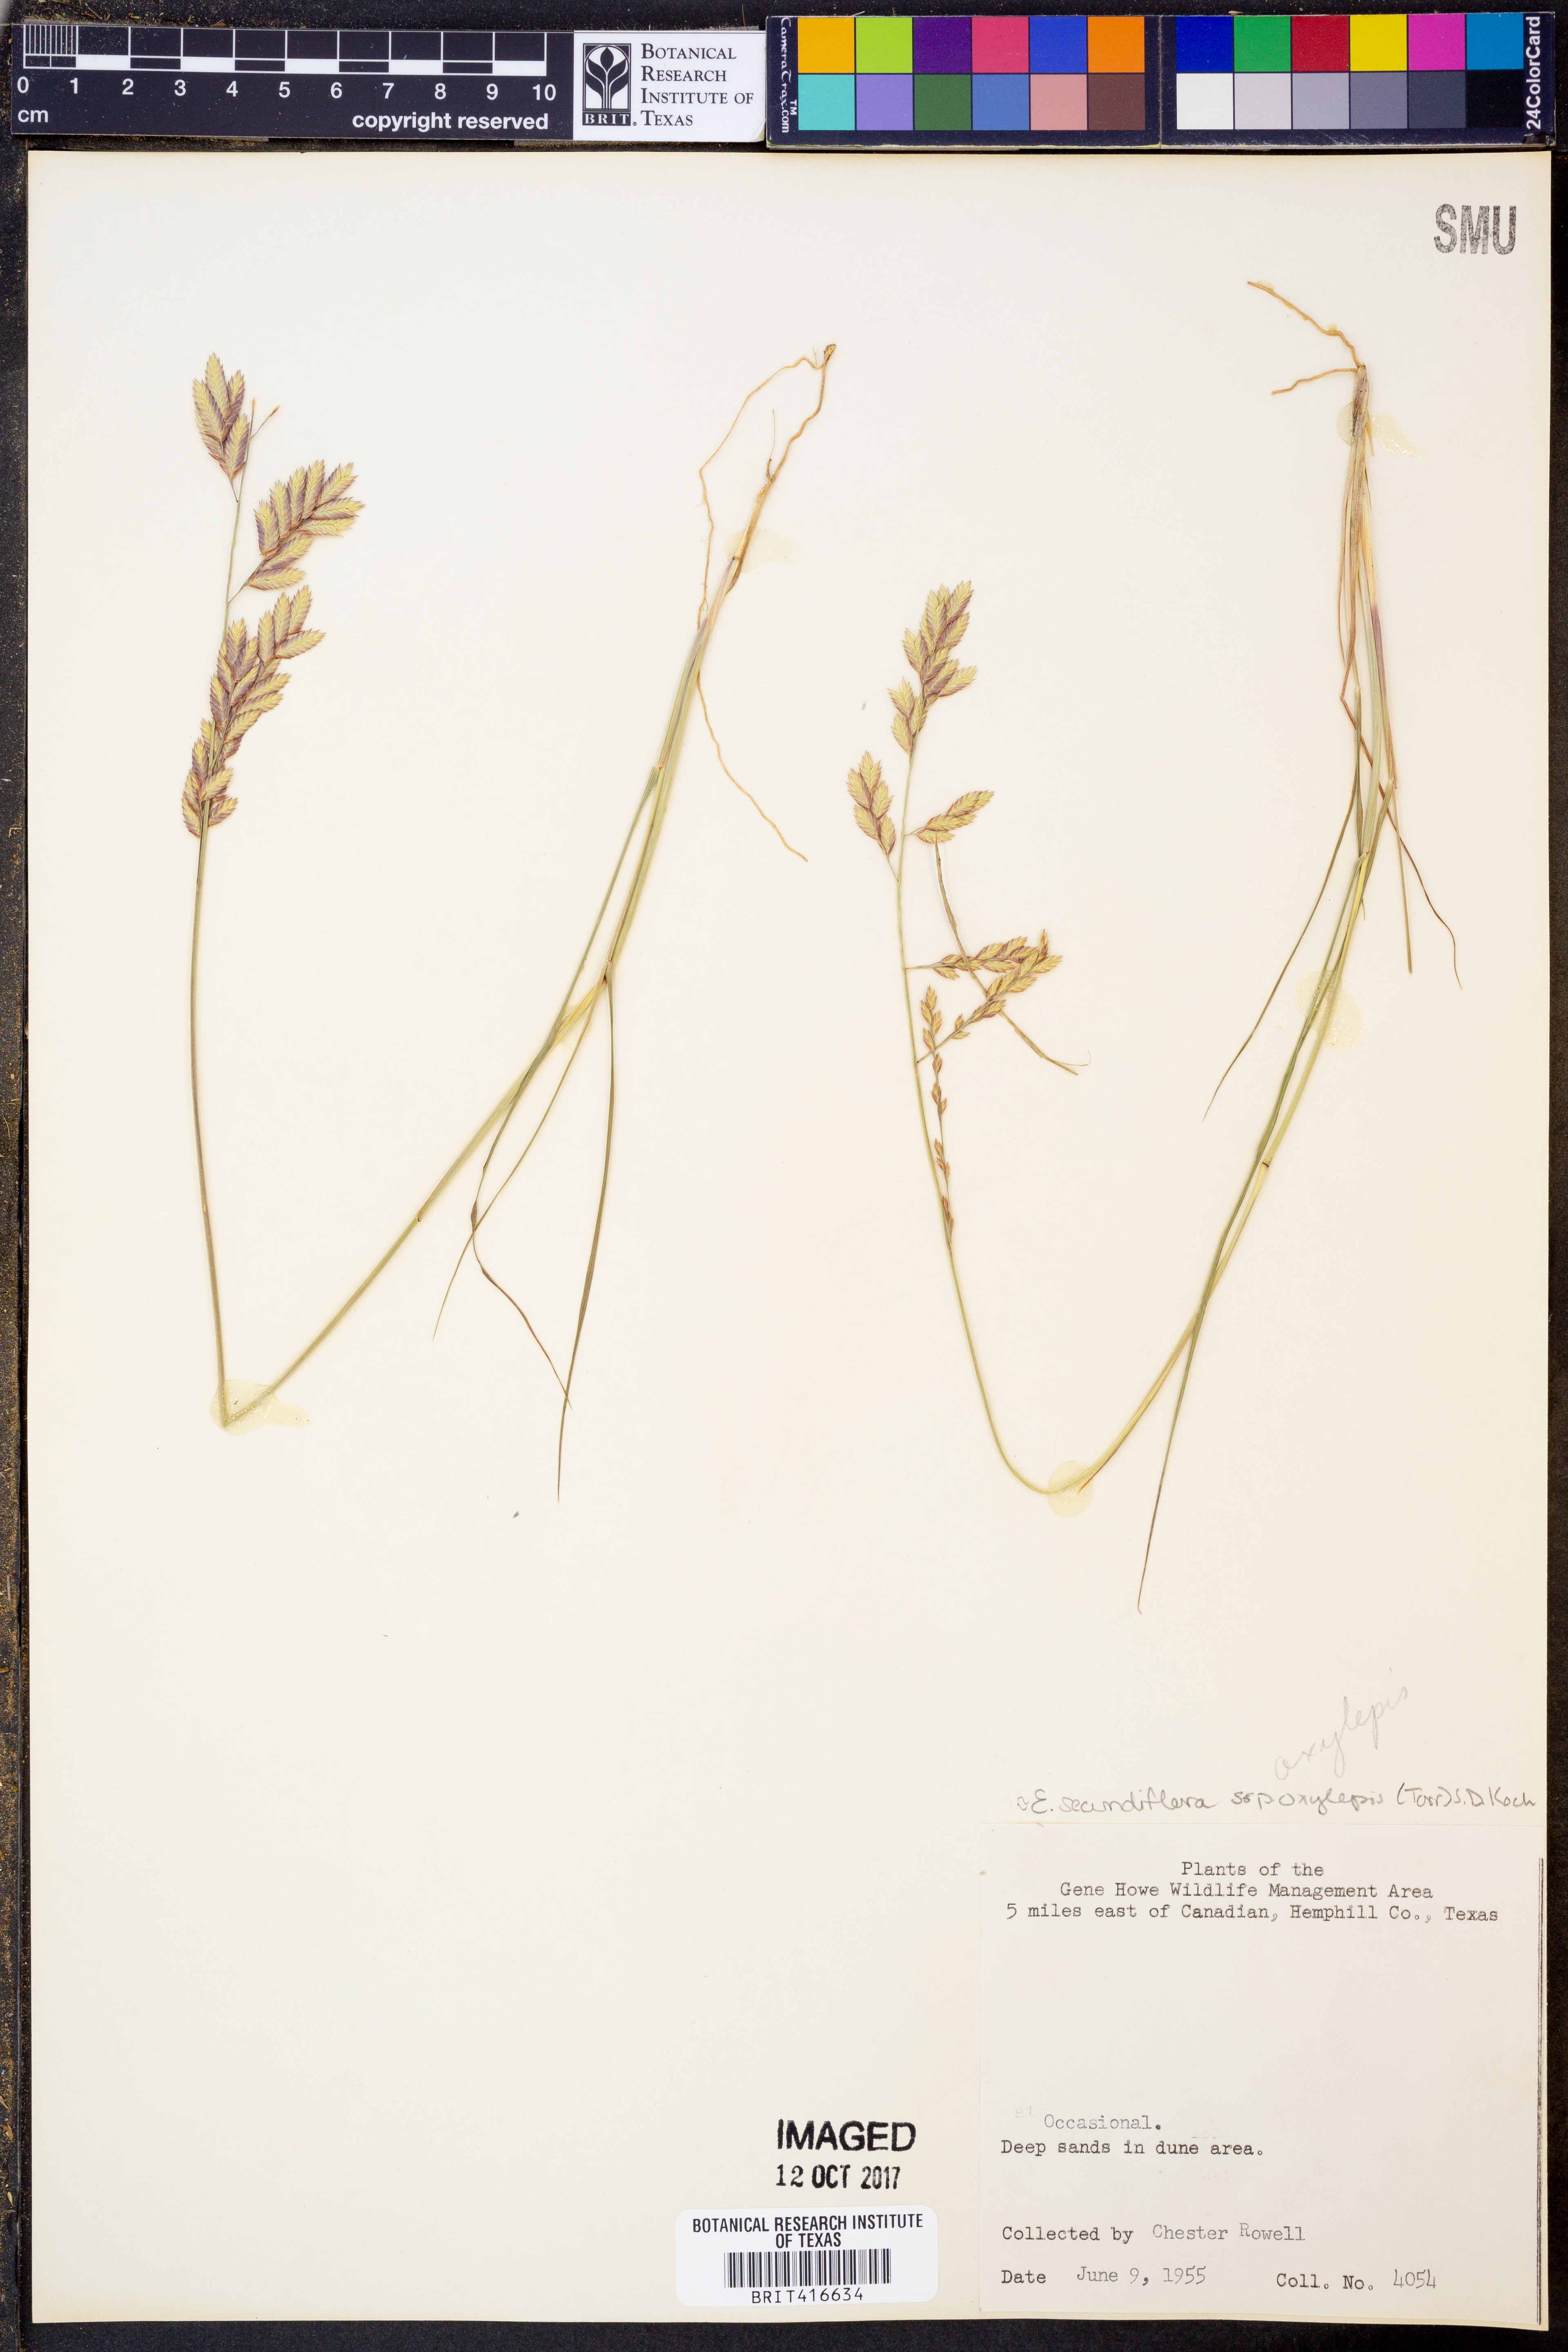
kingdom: Plantae
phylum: Tracheophyta
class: Liliopsida
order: Poales
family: Poaceae
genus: Eragrostis
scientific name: Eragrostis secundiflora
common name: Red love grass
